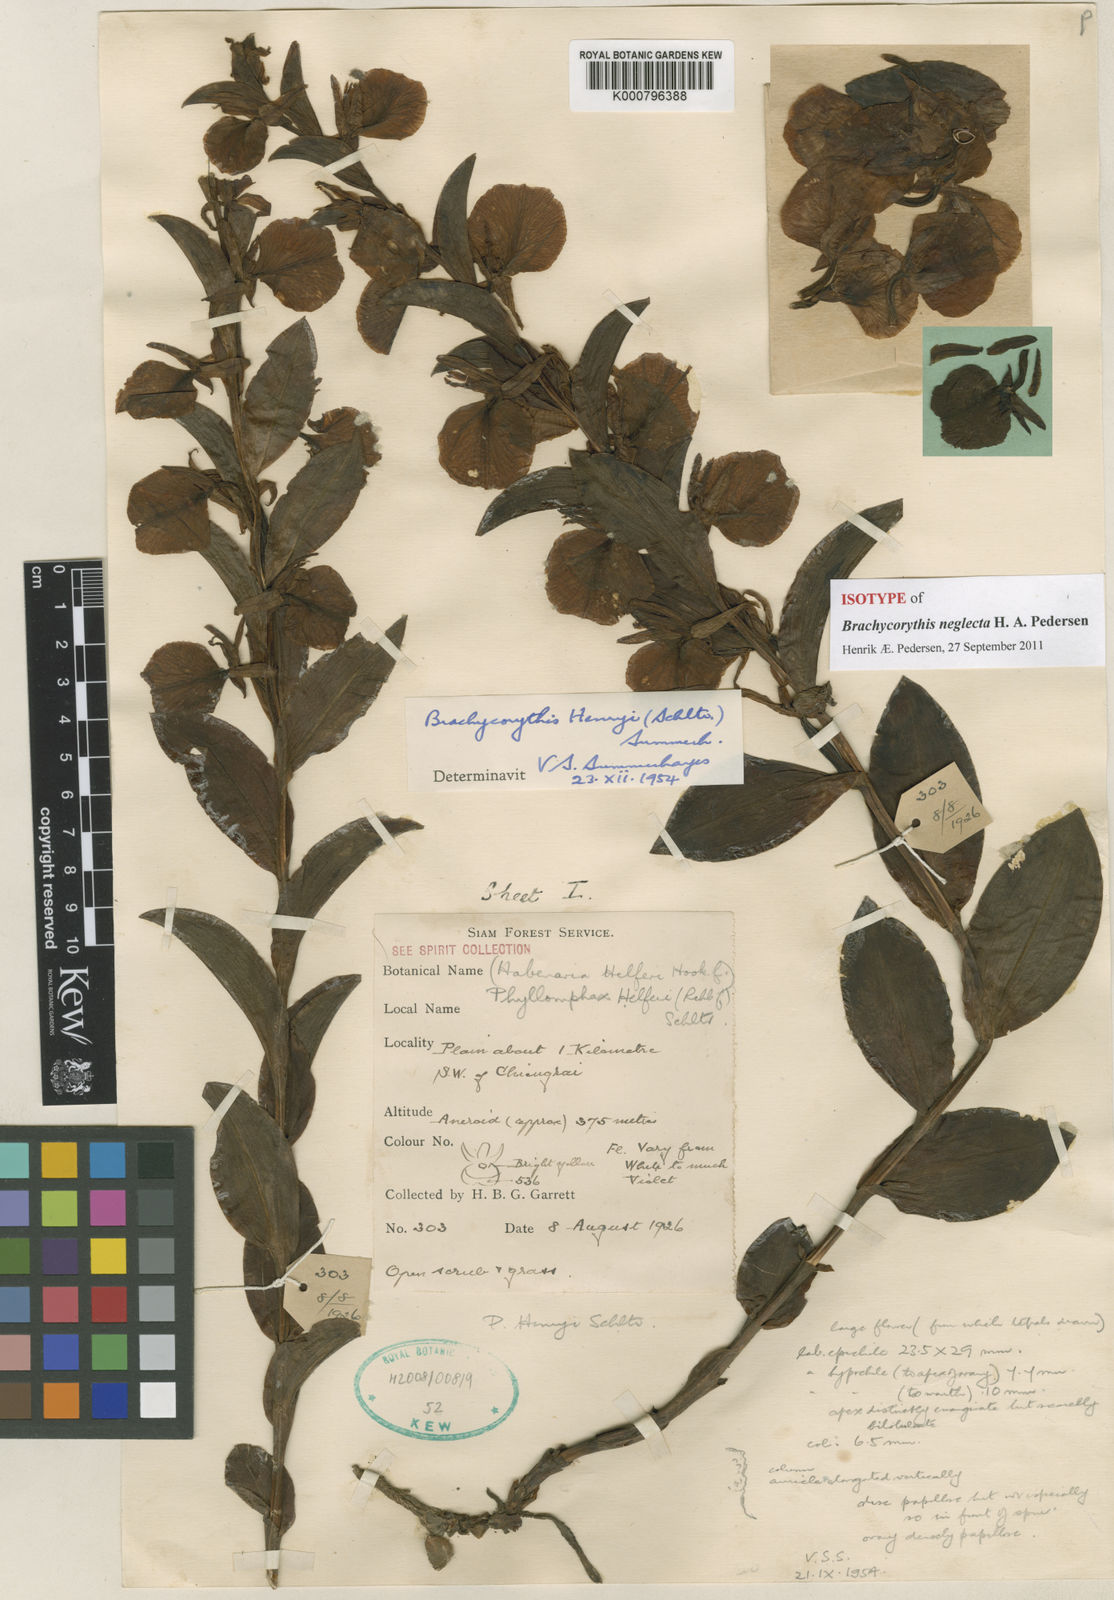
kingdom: Plantae
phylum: Tracheophyta
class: Liliopsida
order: Asparagales
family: Orchidaceae
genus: Brachycorythis
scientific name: Brachycorythis neglecta
